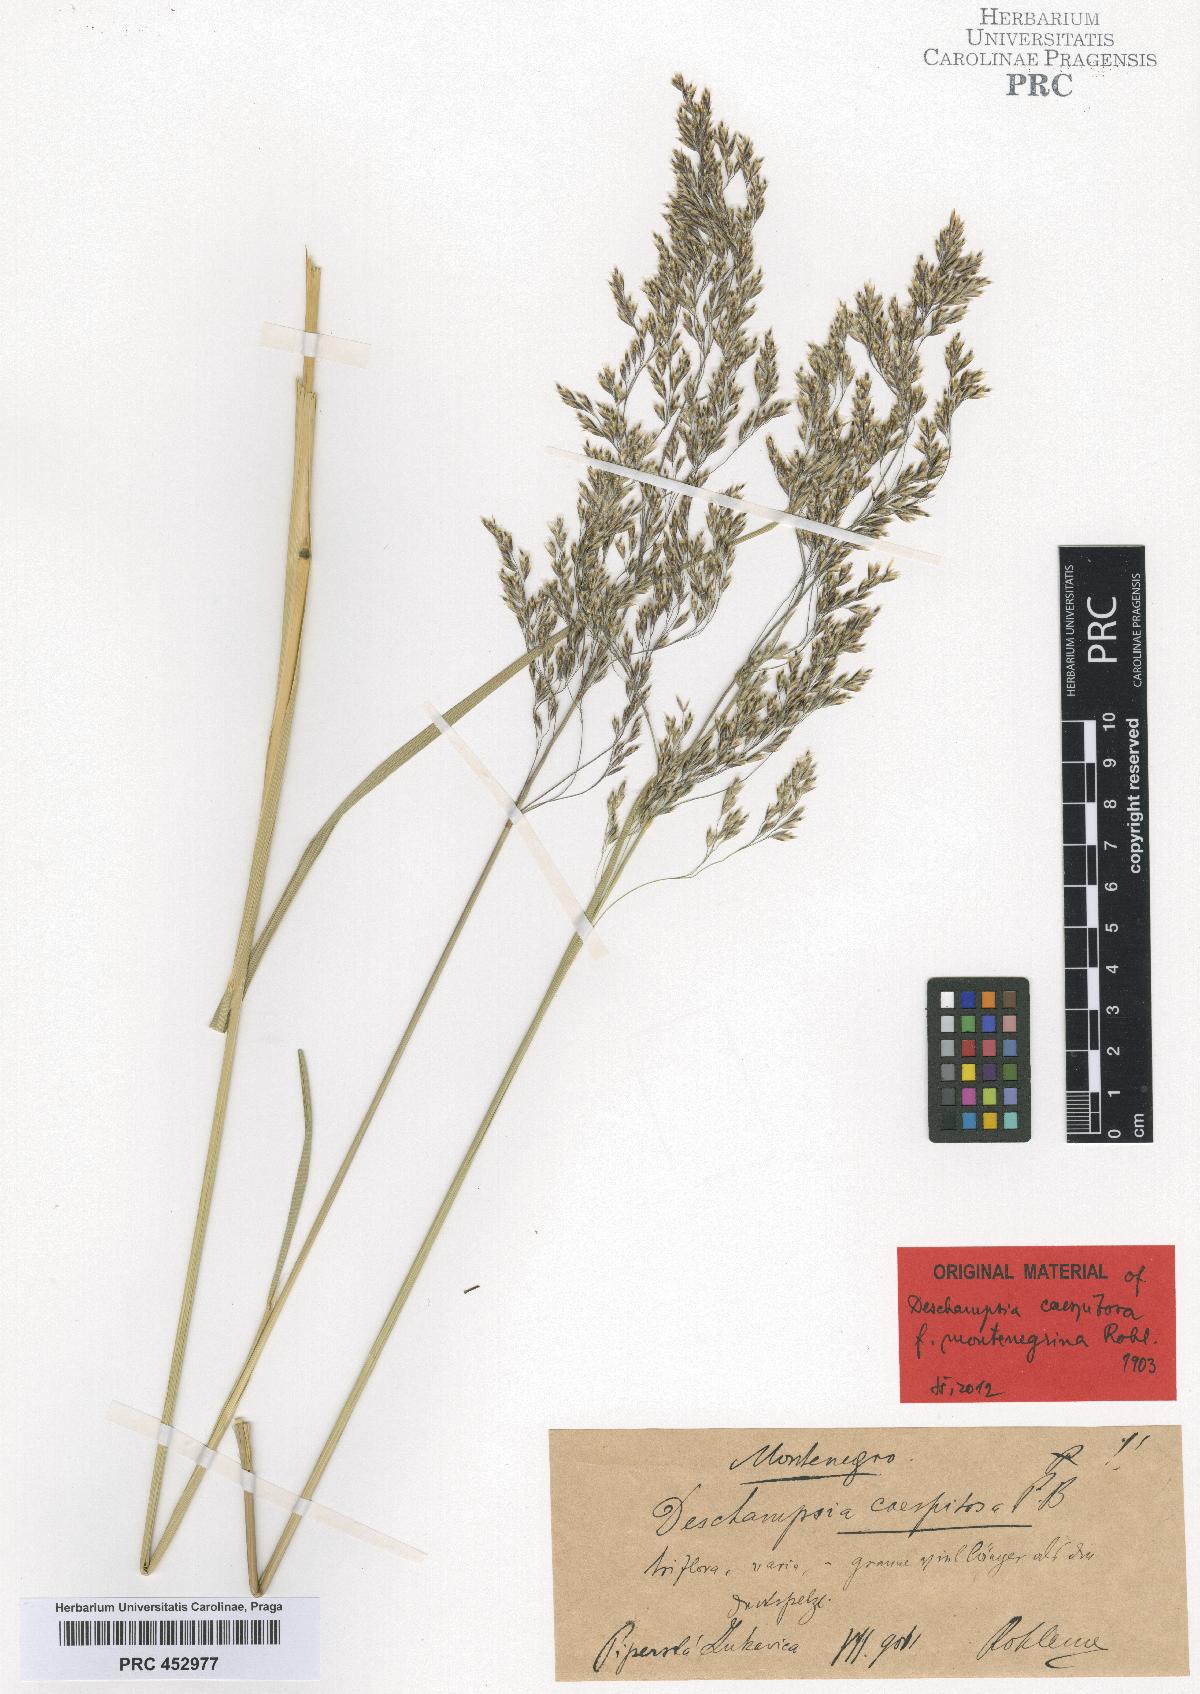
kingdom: Plantae
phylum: Tracheophyta
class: Liliopsida
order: Poales
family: Poaceae
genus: Deschampsia
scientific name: Deschampsia cespitosa
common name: Tufted hair-grass
